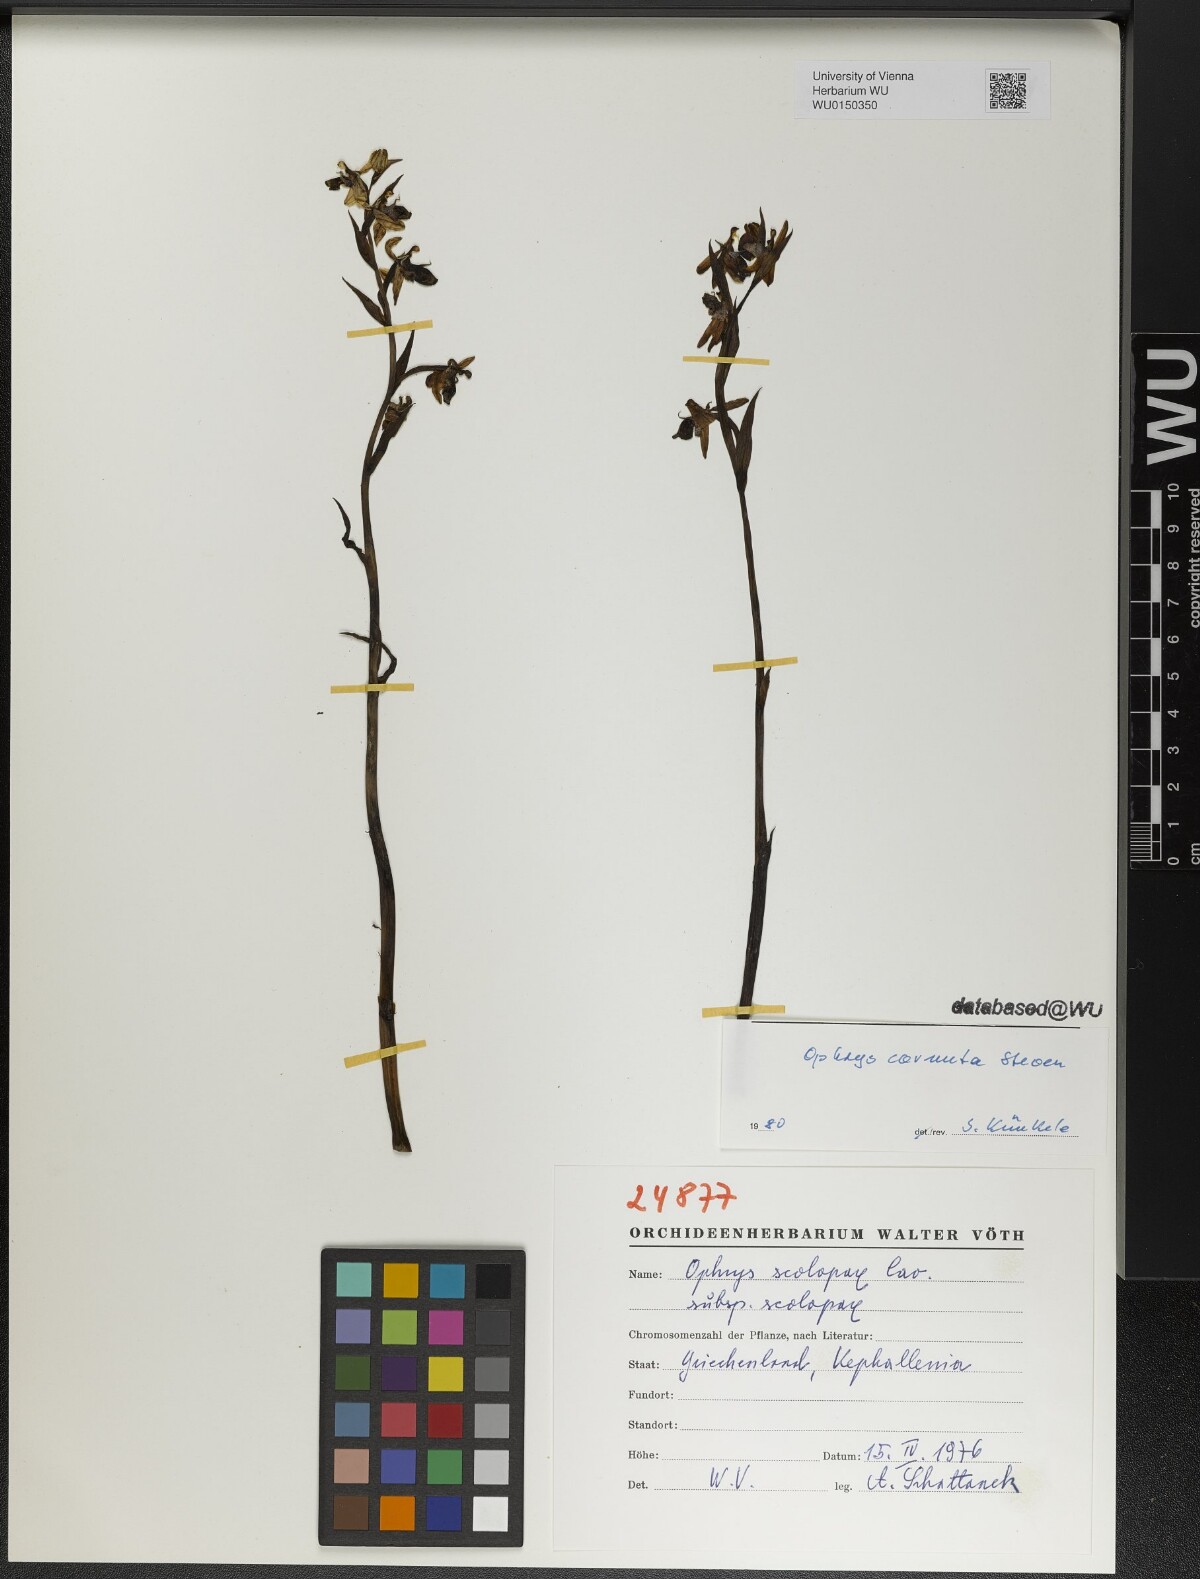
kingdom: Plantae
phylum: Tracheophyta
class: Liliopsida
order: Asparagales
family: Orchidaceae
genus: Ophrys
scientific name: Ophrys scolopax
